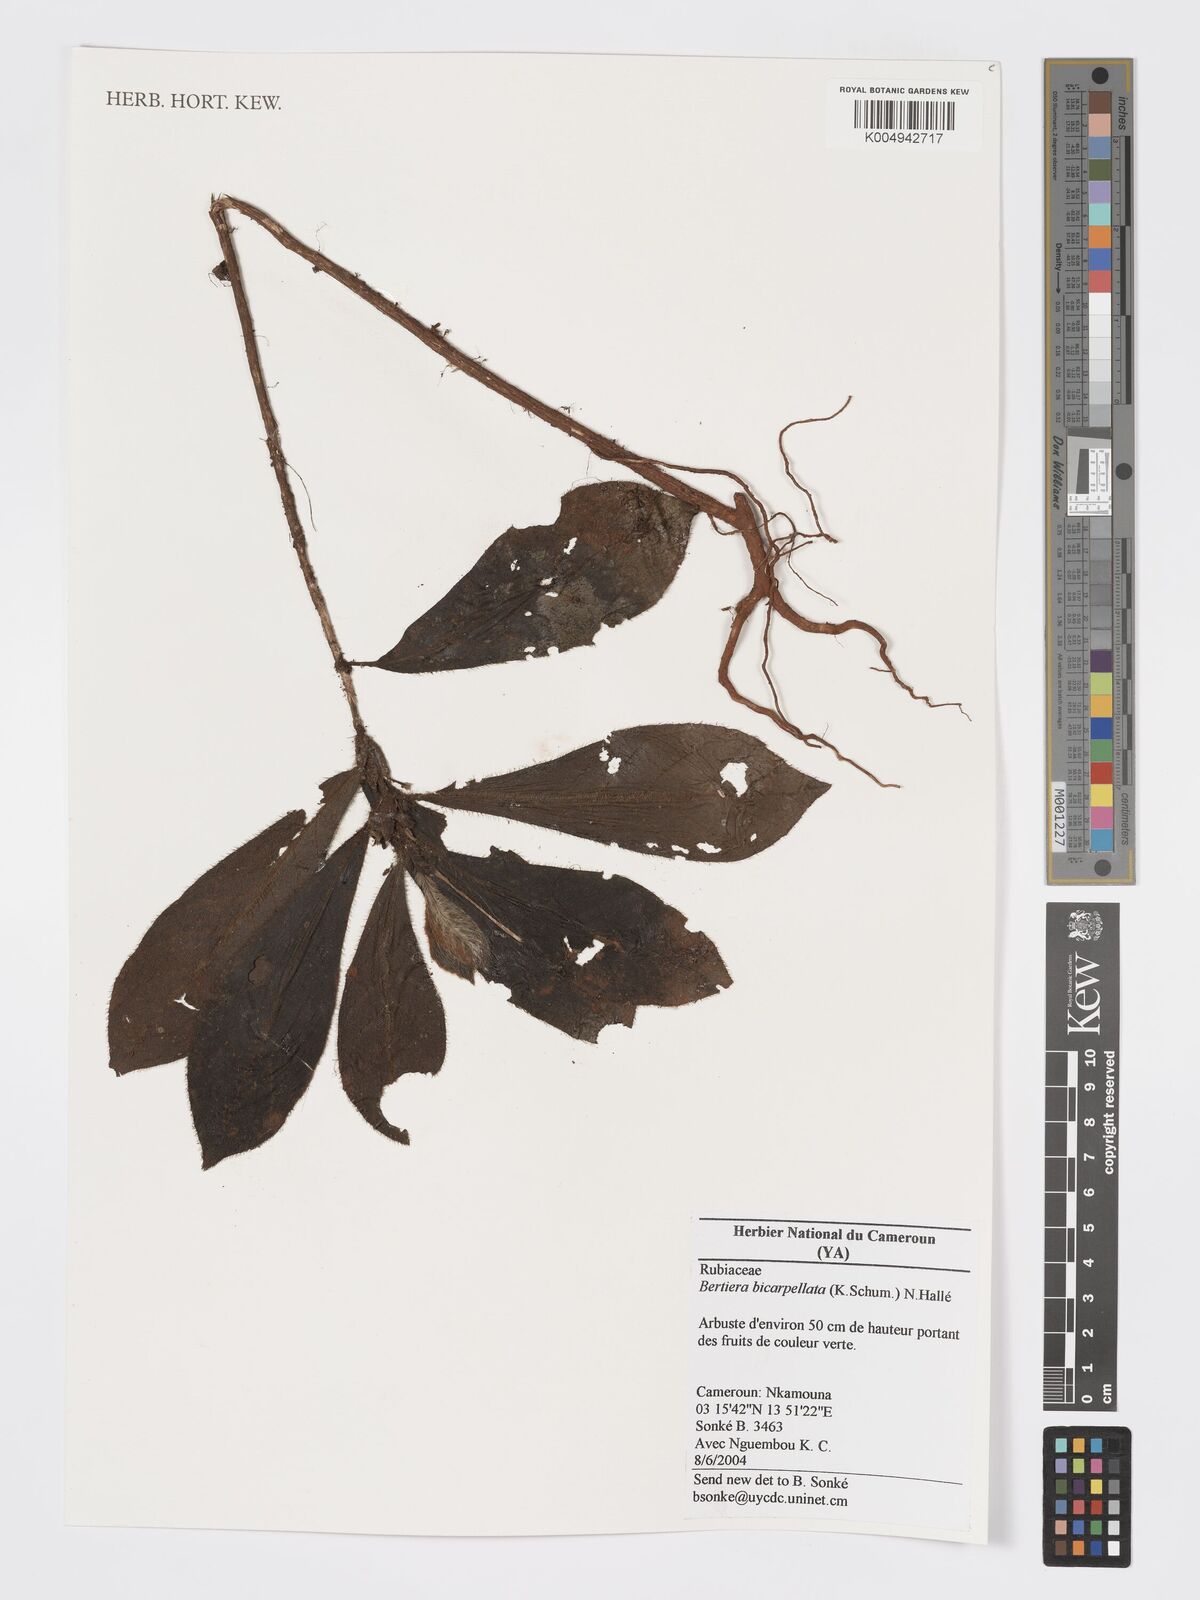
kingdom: Plantae
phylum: Tracheophyta
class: Magnoliopsida
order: Gentianales
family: Rubiaceae
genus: Bertiera
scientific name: Bertiera bicarpellata
